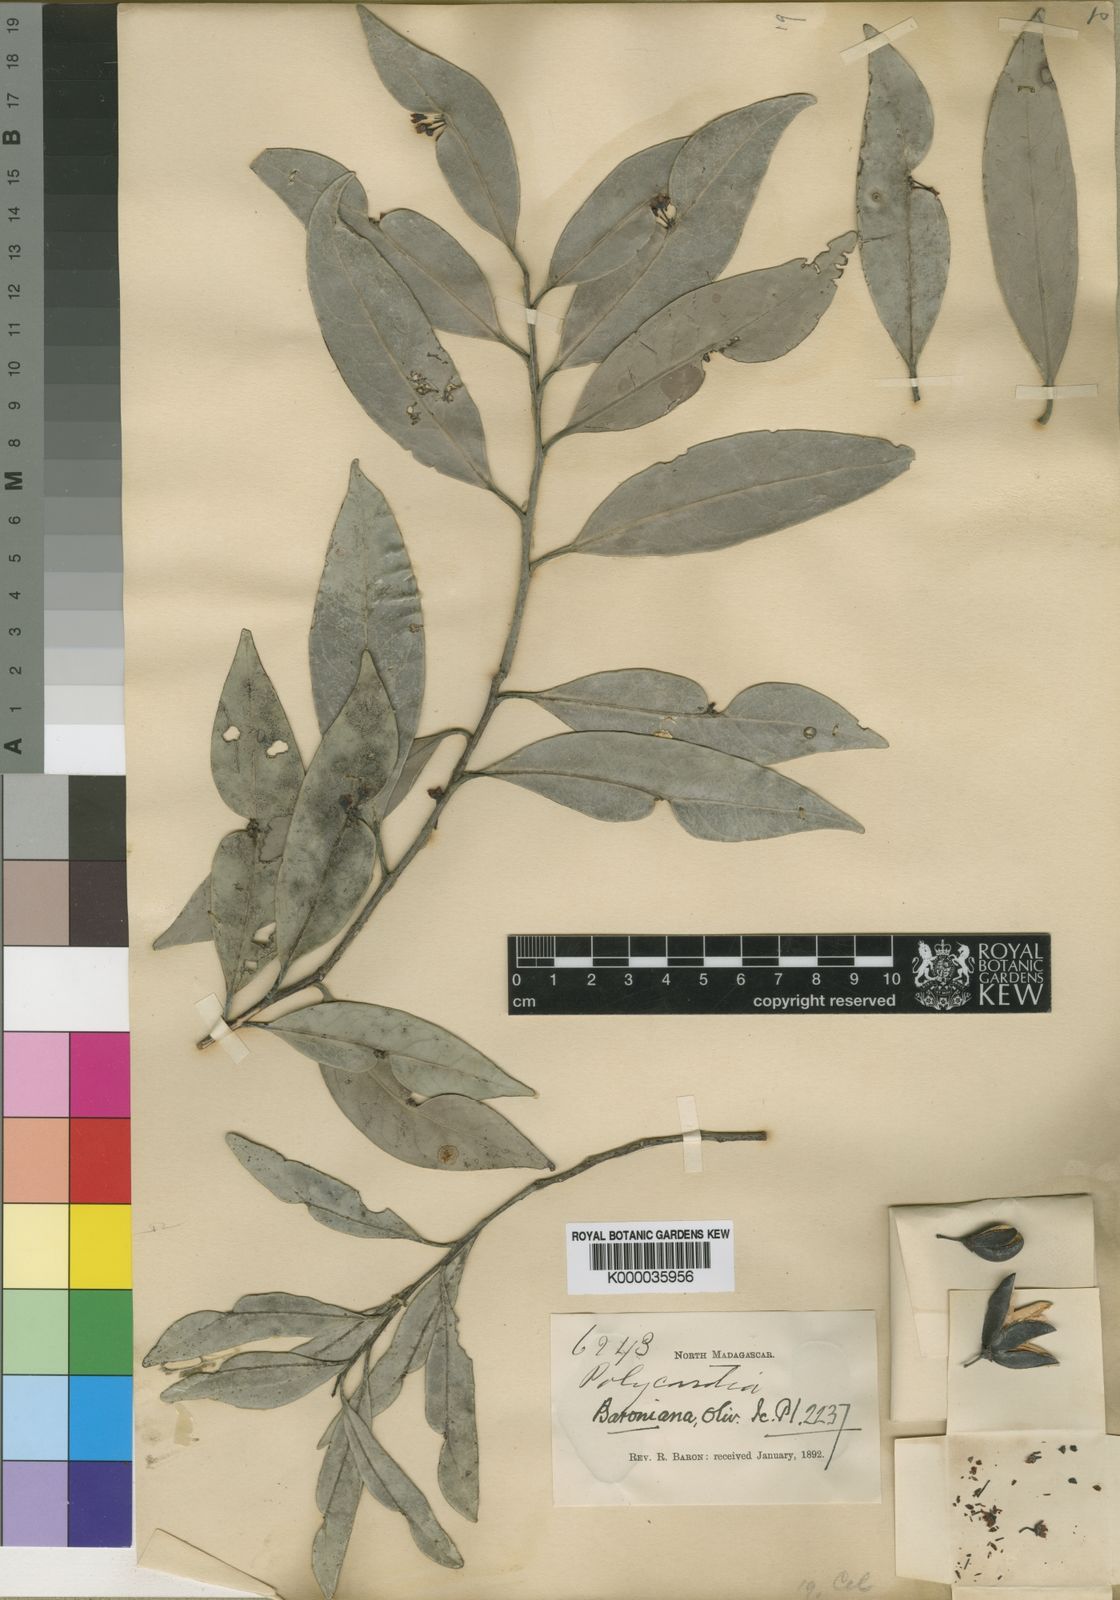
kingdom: Plantae
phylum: Tracheophyta
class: Magnoliopsida
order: Celastrales
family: Celastraceae
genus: Polycardia
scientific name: Polycardia lateralis
